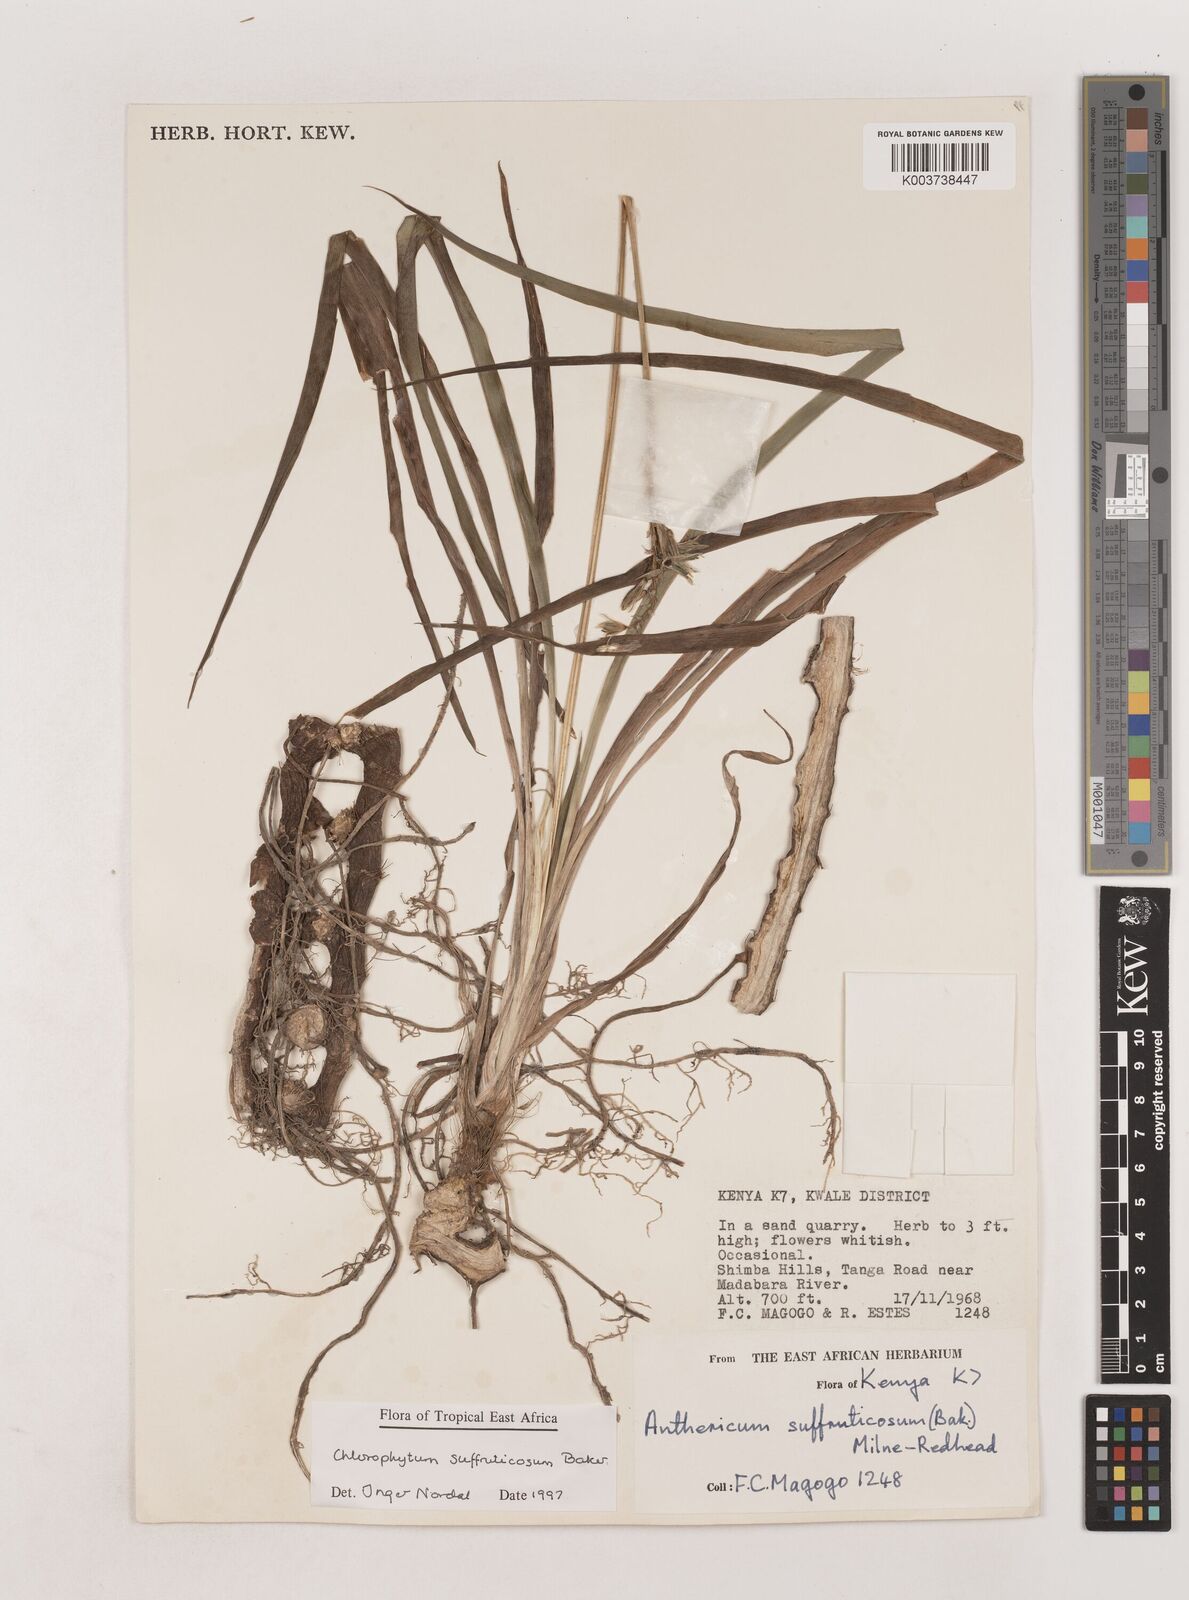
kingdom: Plantae
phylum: Tracheophyta
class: Liliopsida
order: Asparagales
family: Asparagaceae
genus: Chlorophytum
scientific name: Chlorophytum suffruticosum
